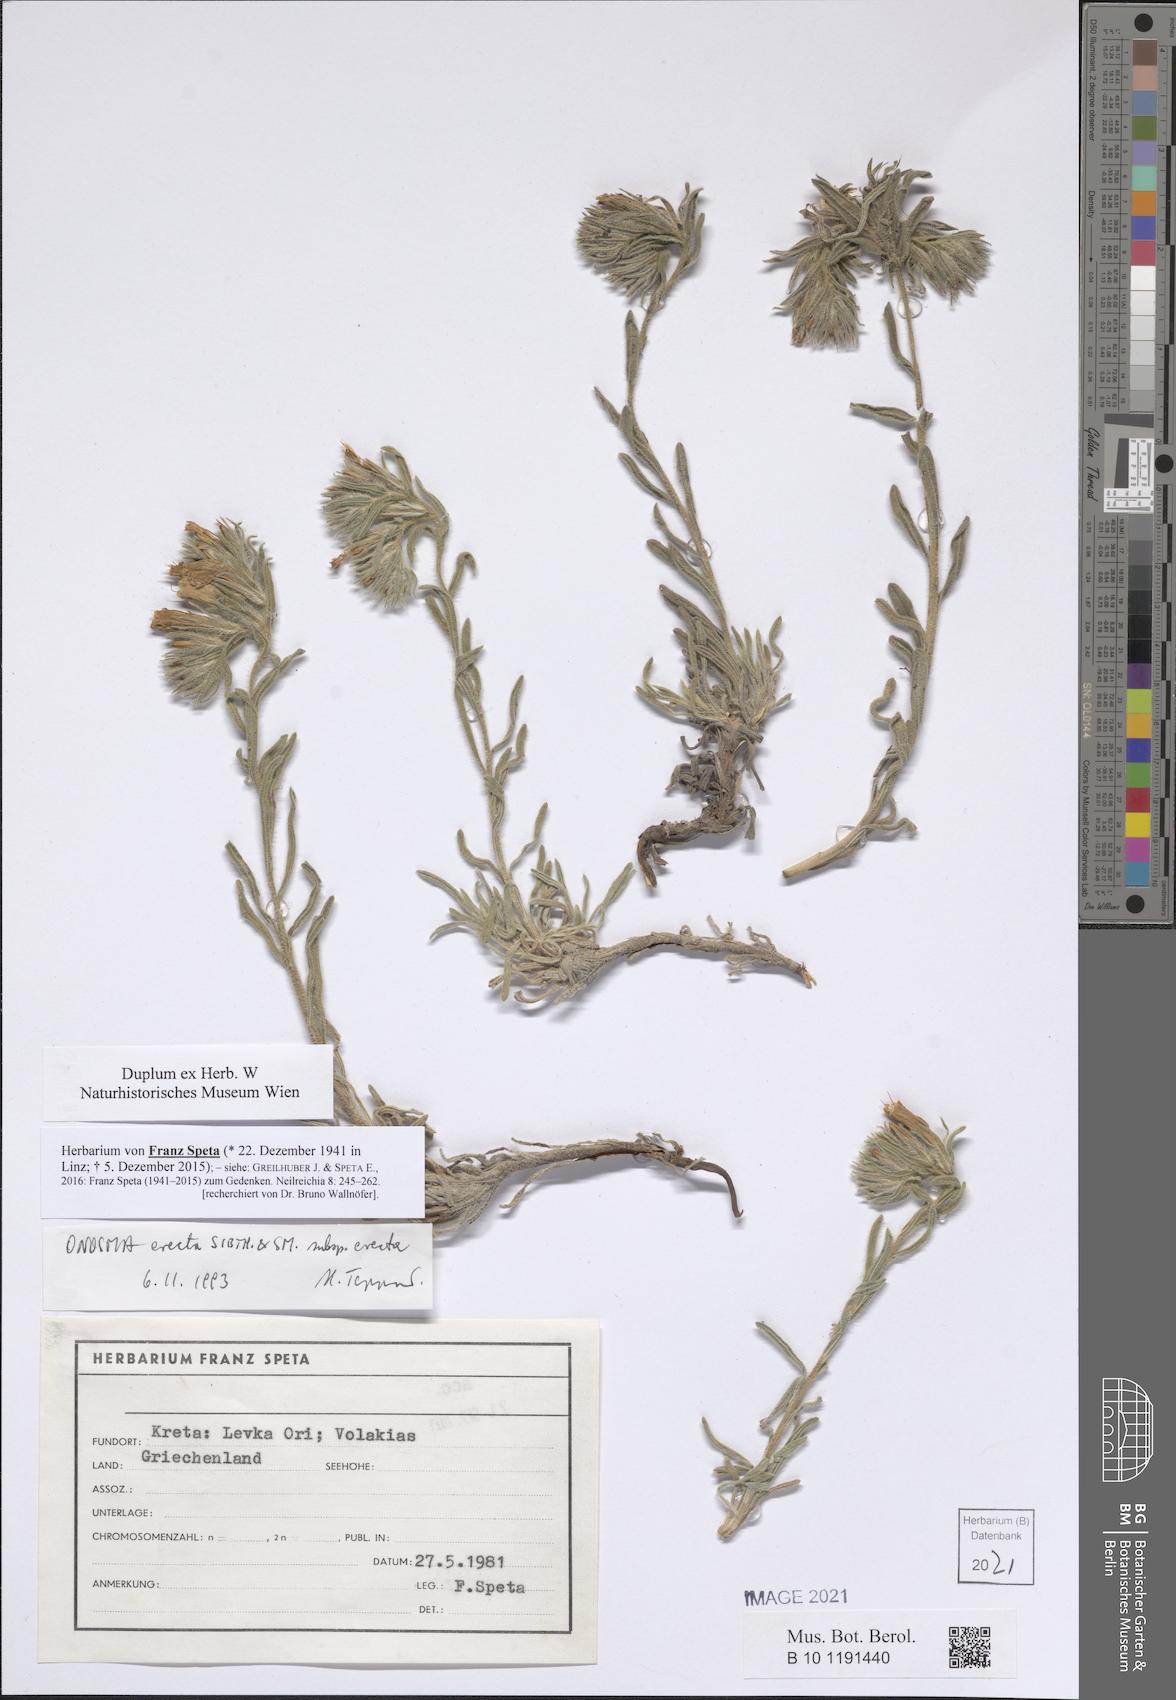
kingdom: Plantae
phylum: Tracheophyta
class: Magnoliopsida
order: Boraginales
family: Boraginaceae
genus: Onosma
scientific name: Onosma erecta
